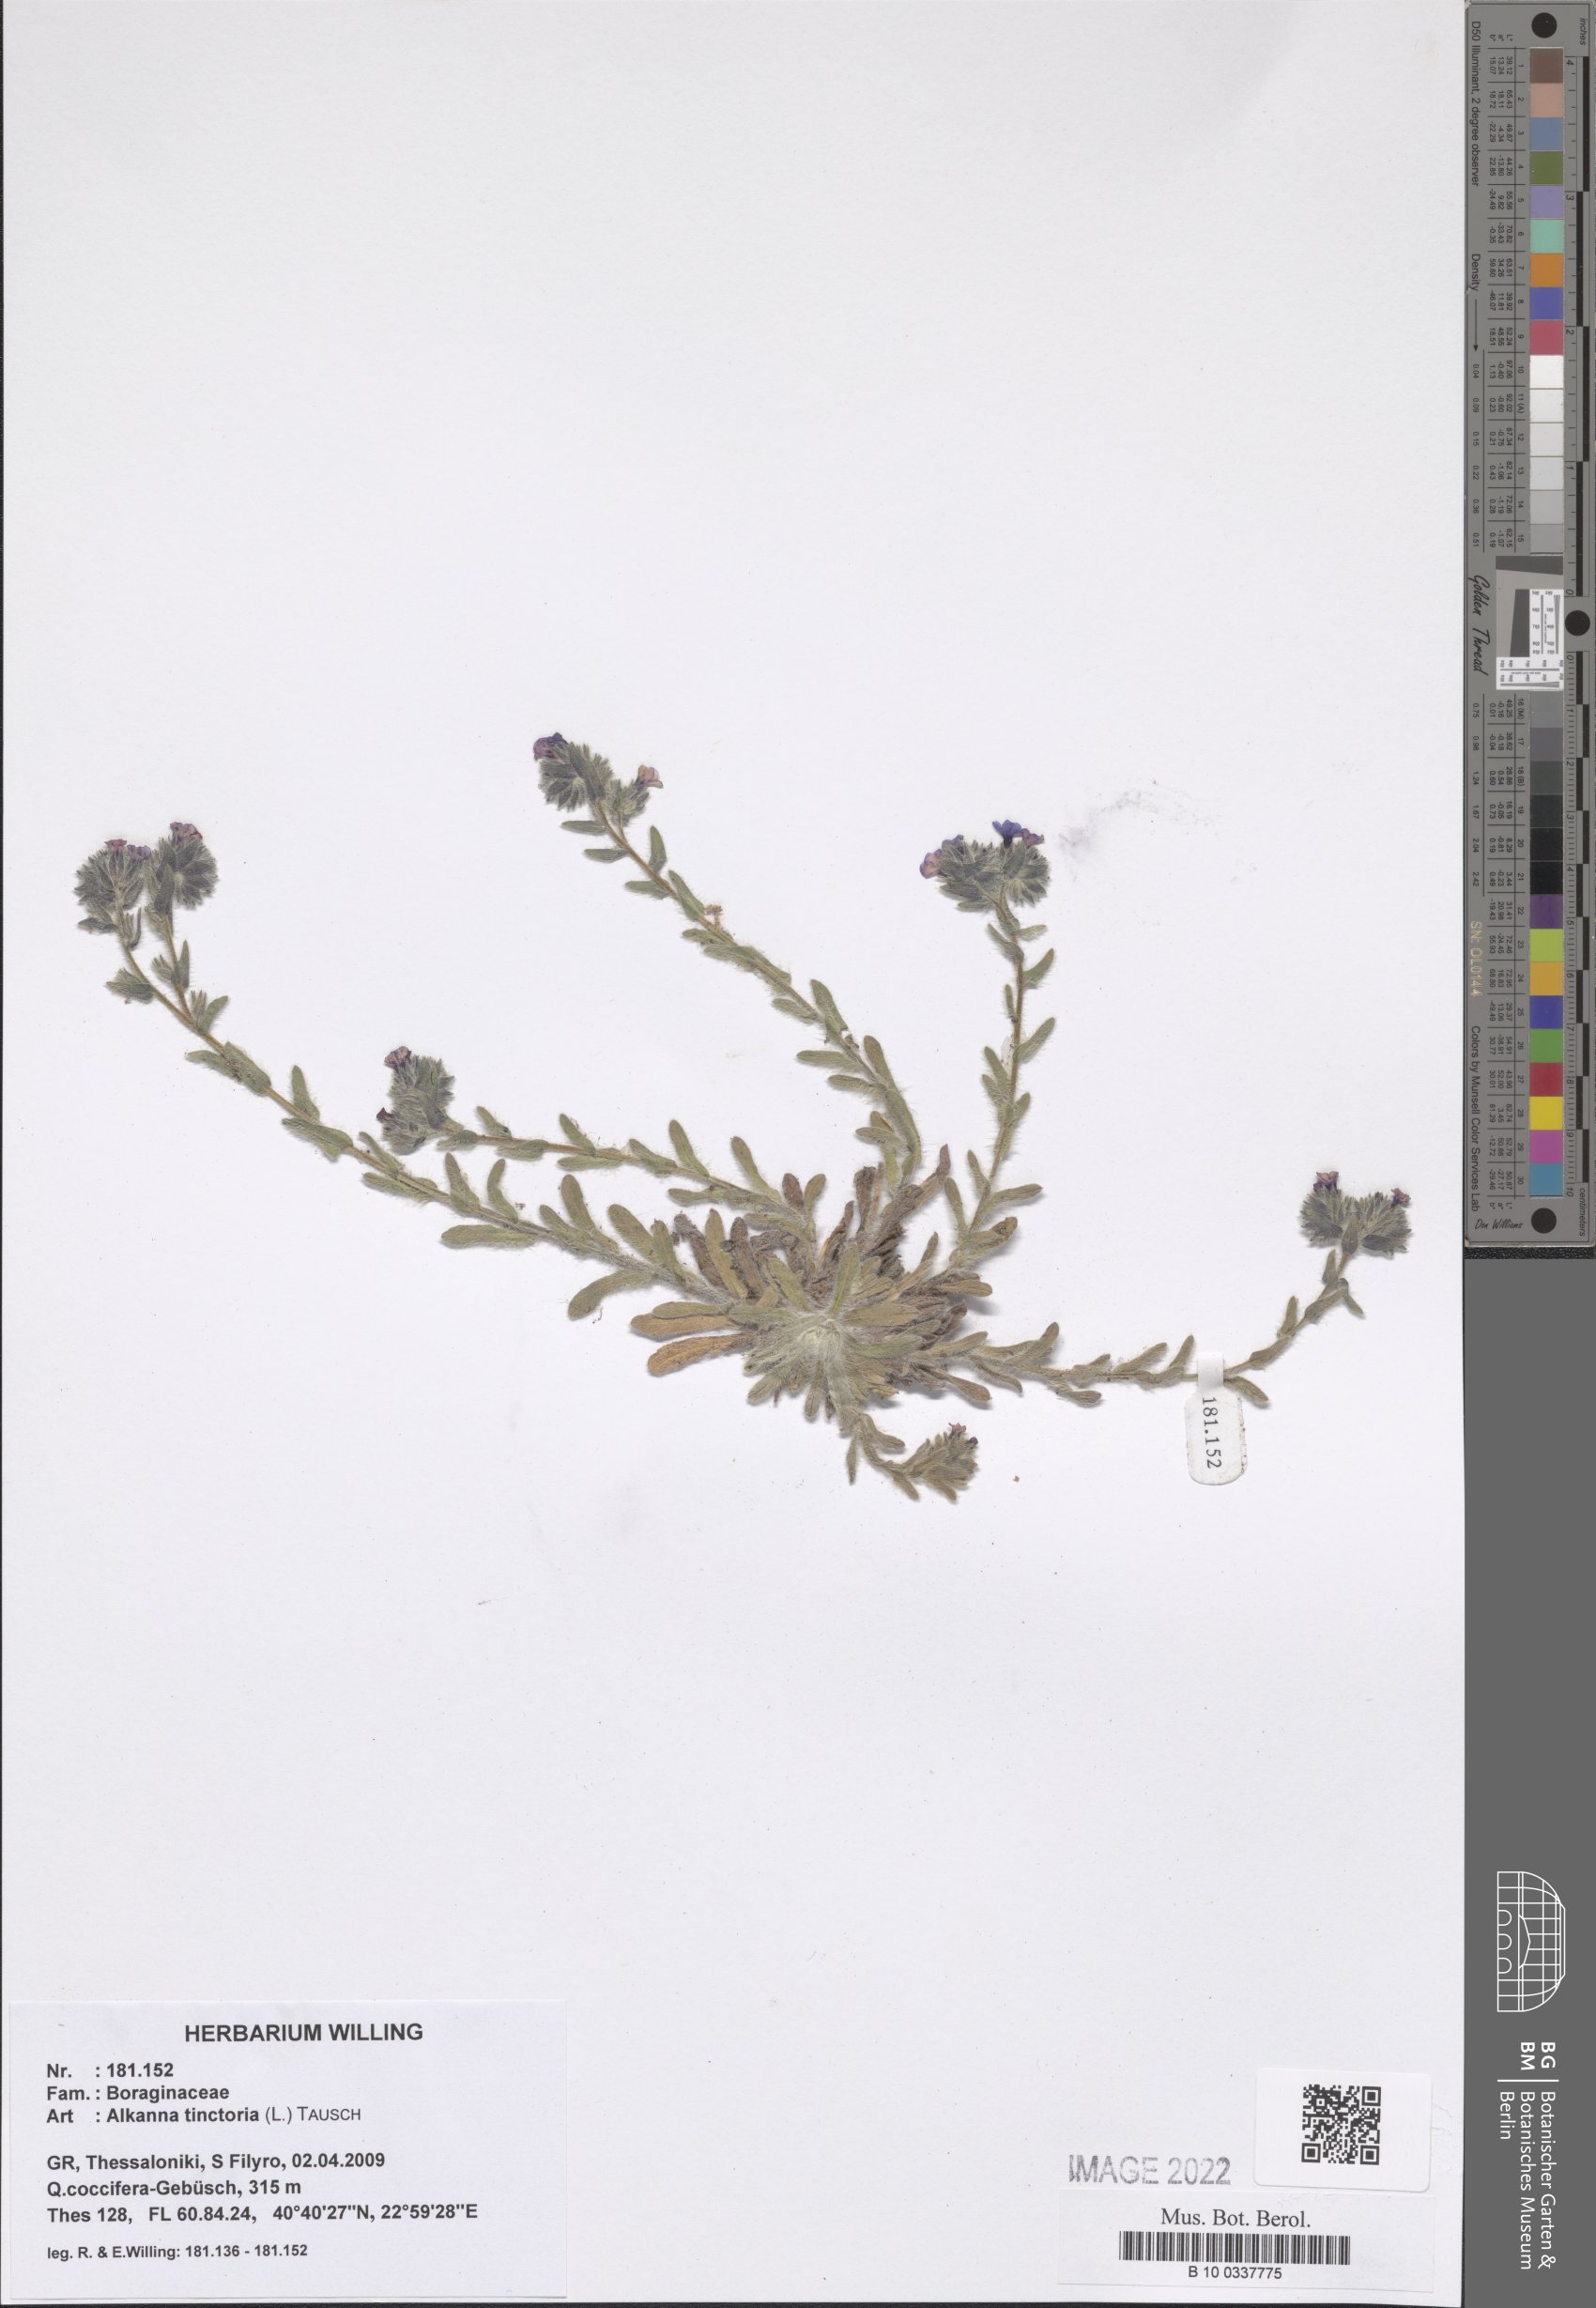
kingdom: Plantae
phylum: Tracheophyta
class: Magnoliopsida
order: Boraginales
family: Boraginaceae
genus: Alkanna
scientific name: Alkanna tinctoria
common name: Dyer's-alkanet
